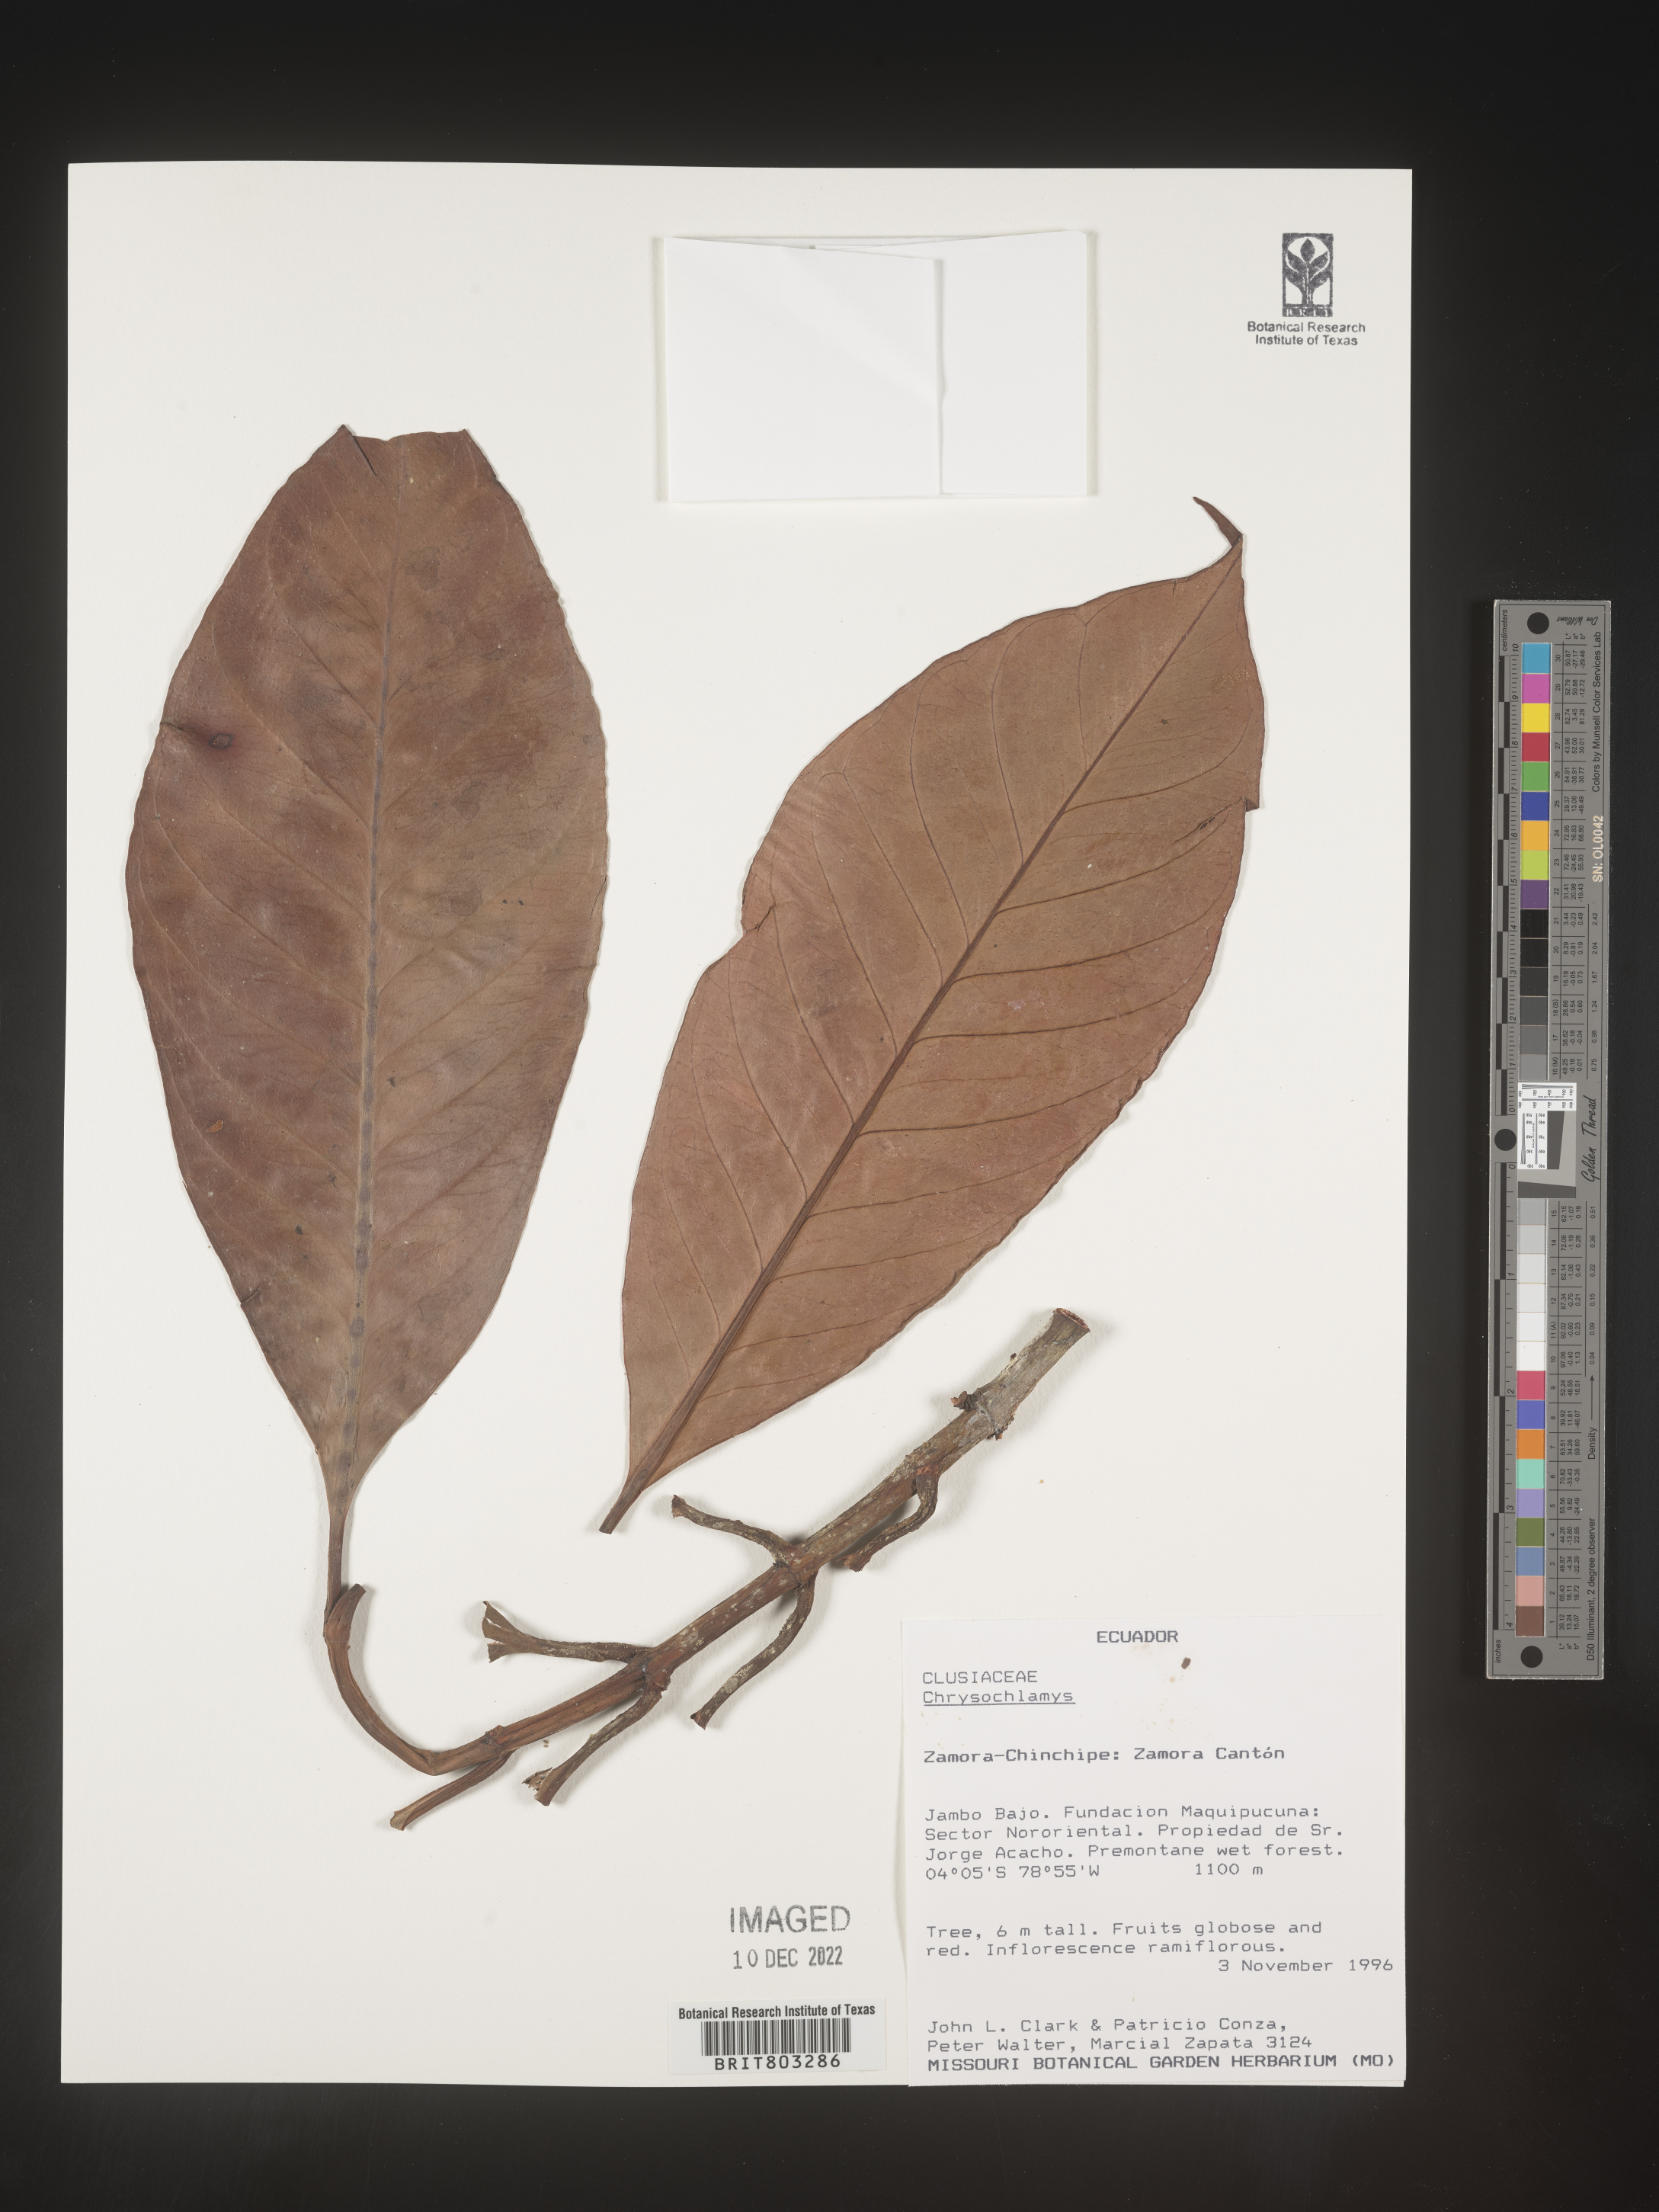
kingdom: Plantae
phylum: Tracheophyta
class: Magnoliopsida
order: Malpighiales
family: Clusiaceae
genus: Tovomita
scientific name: Tovomita
